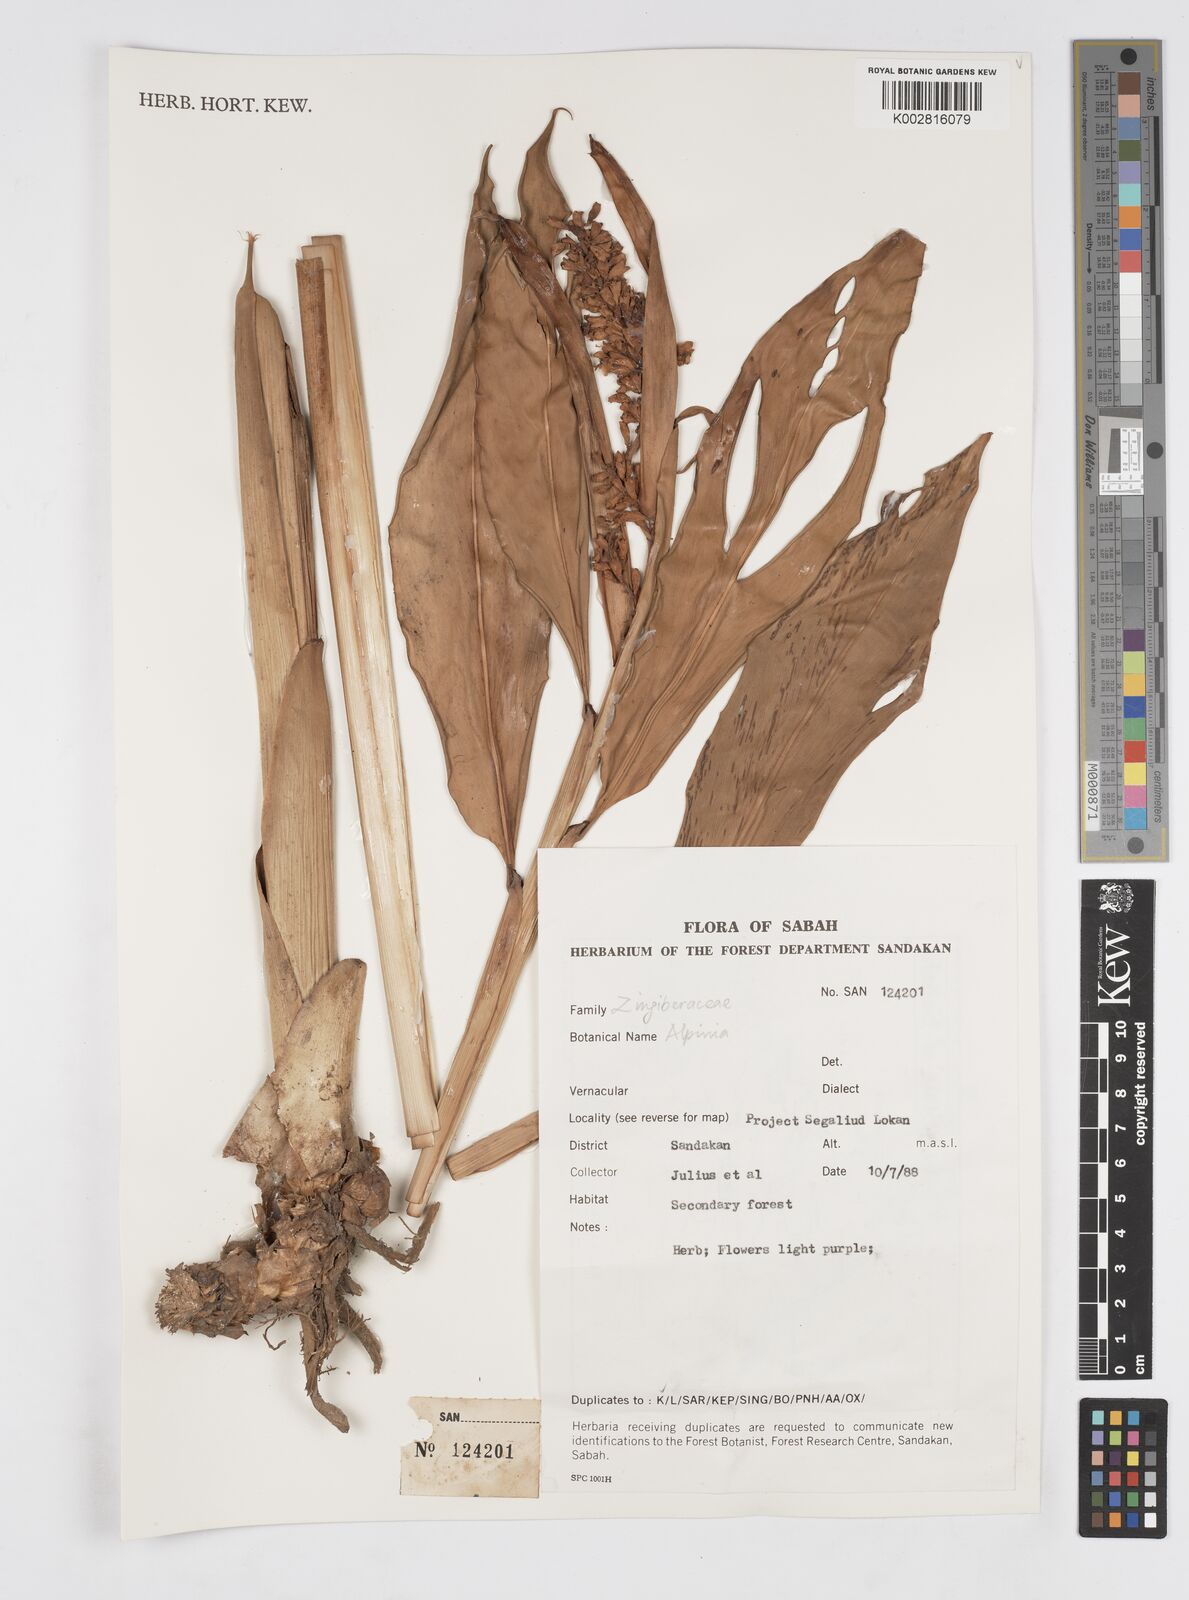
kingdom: Plantae
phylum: Tracheophyta
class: Liliopsida
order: Zingiberales
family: Zingiberaceae
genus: Alpinia
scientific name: Alpinia
